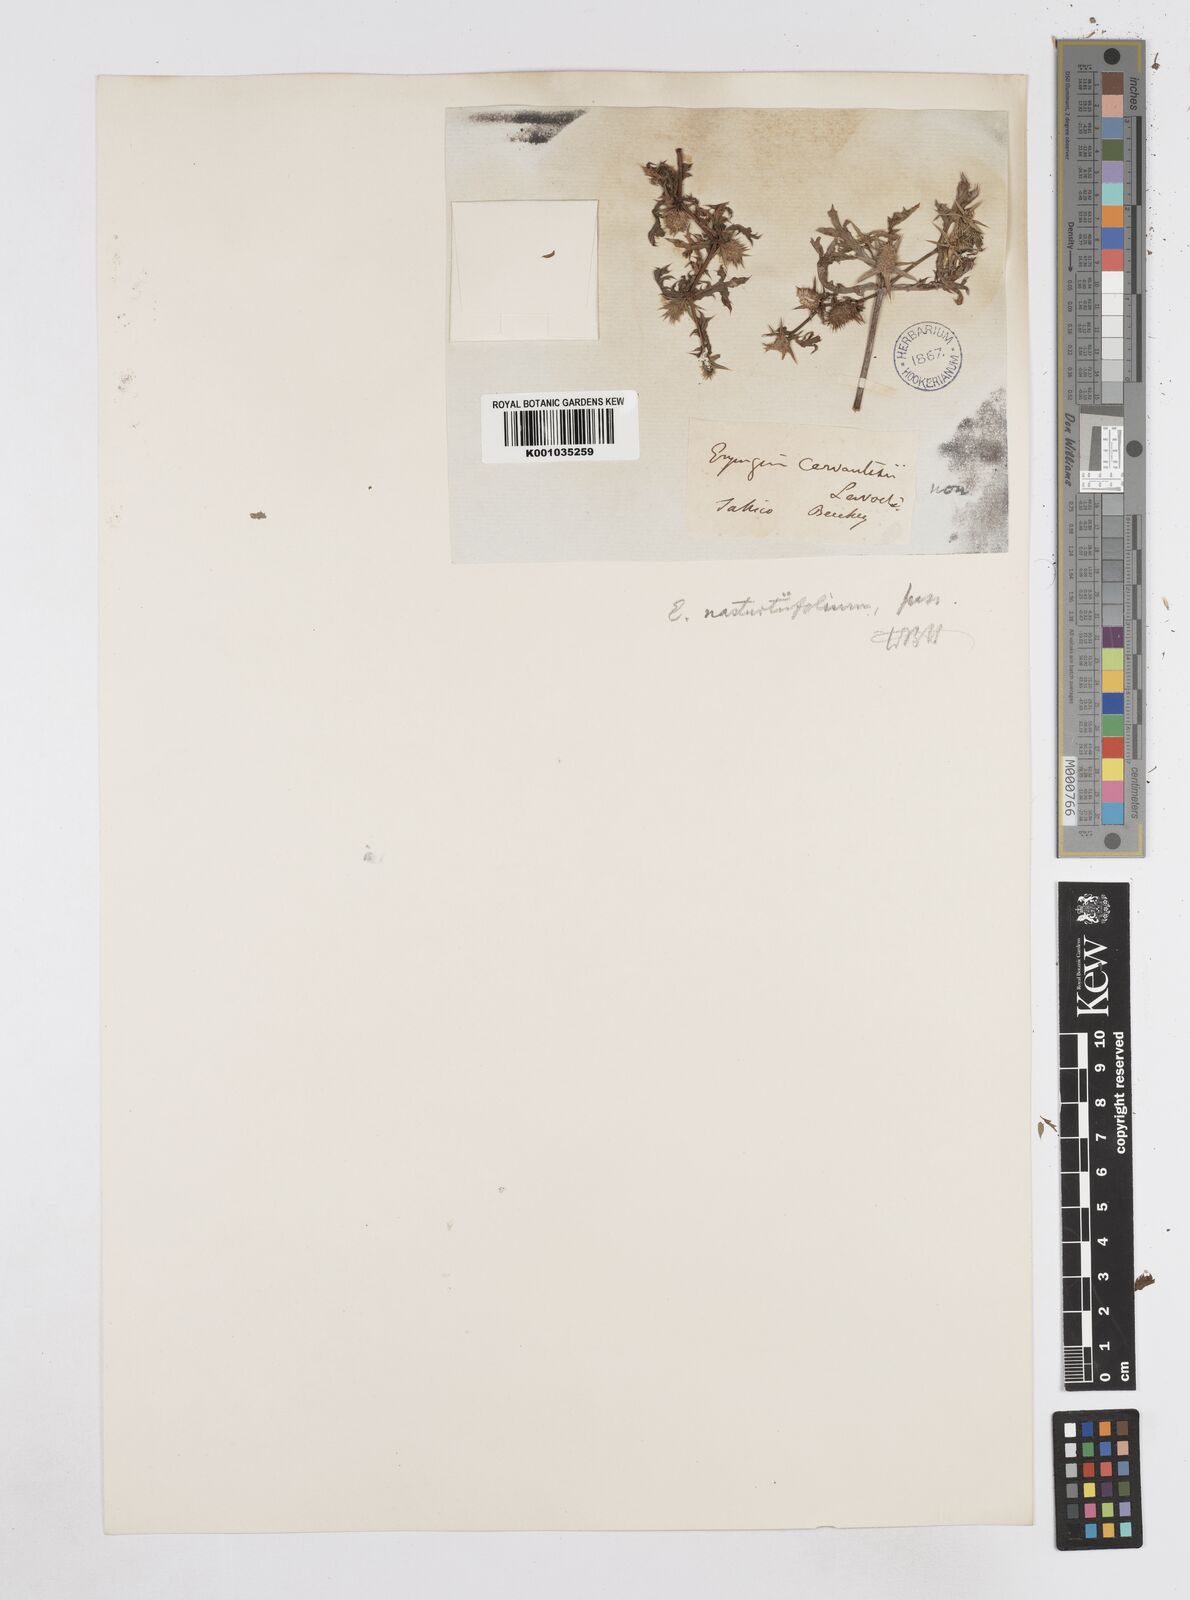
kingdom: Plantae
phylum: Tracheophyta
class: Magnoliopsida
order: Apiales
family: Apiaceae
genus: Eryngium
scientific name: Eryngium nasturtiifolium
